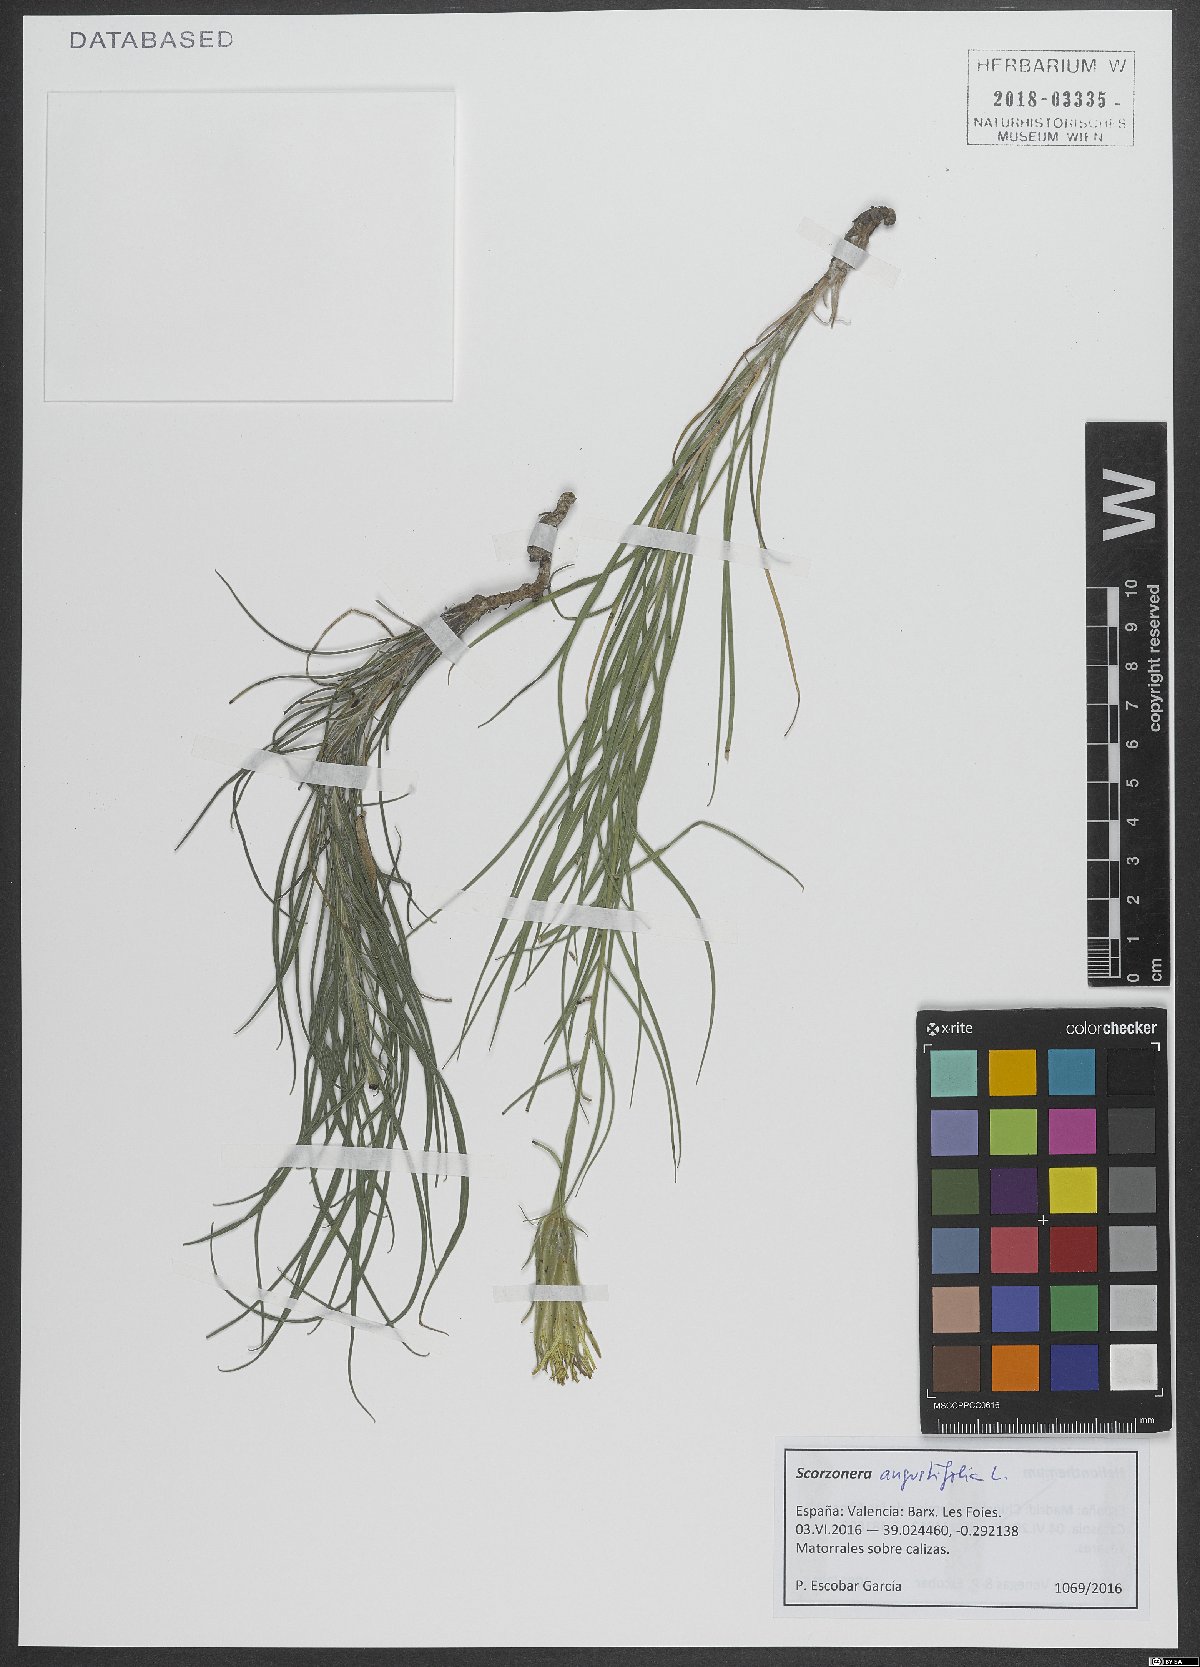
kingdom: Plantae
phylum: Tracheophyta
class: Magnoliopsida
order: Asterales
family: Asteraceae
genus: Scorzonera
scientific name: Scorzonera angustifolia
